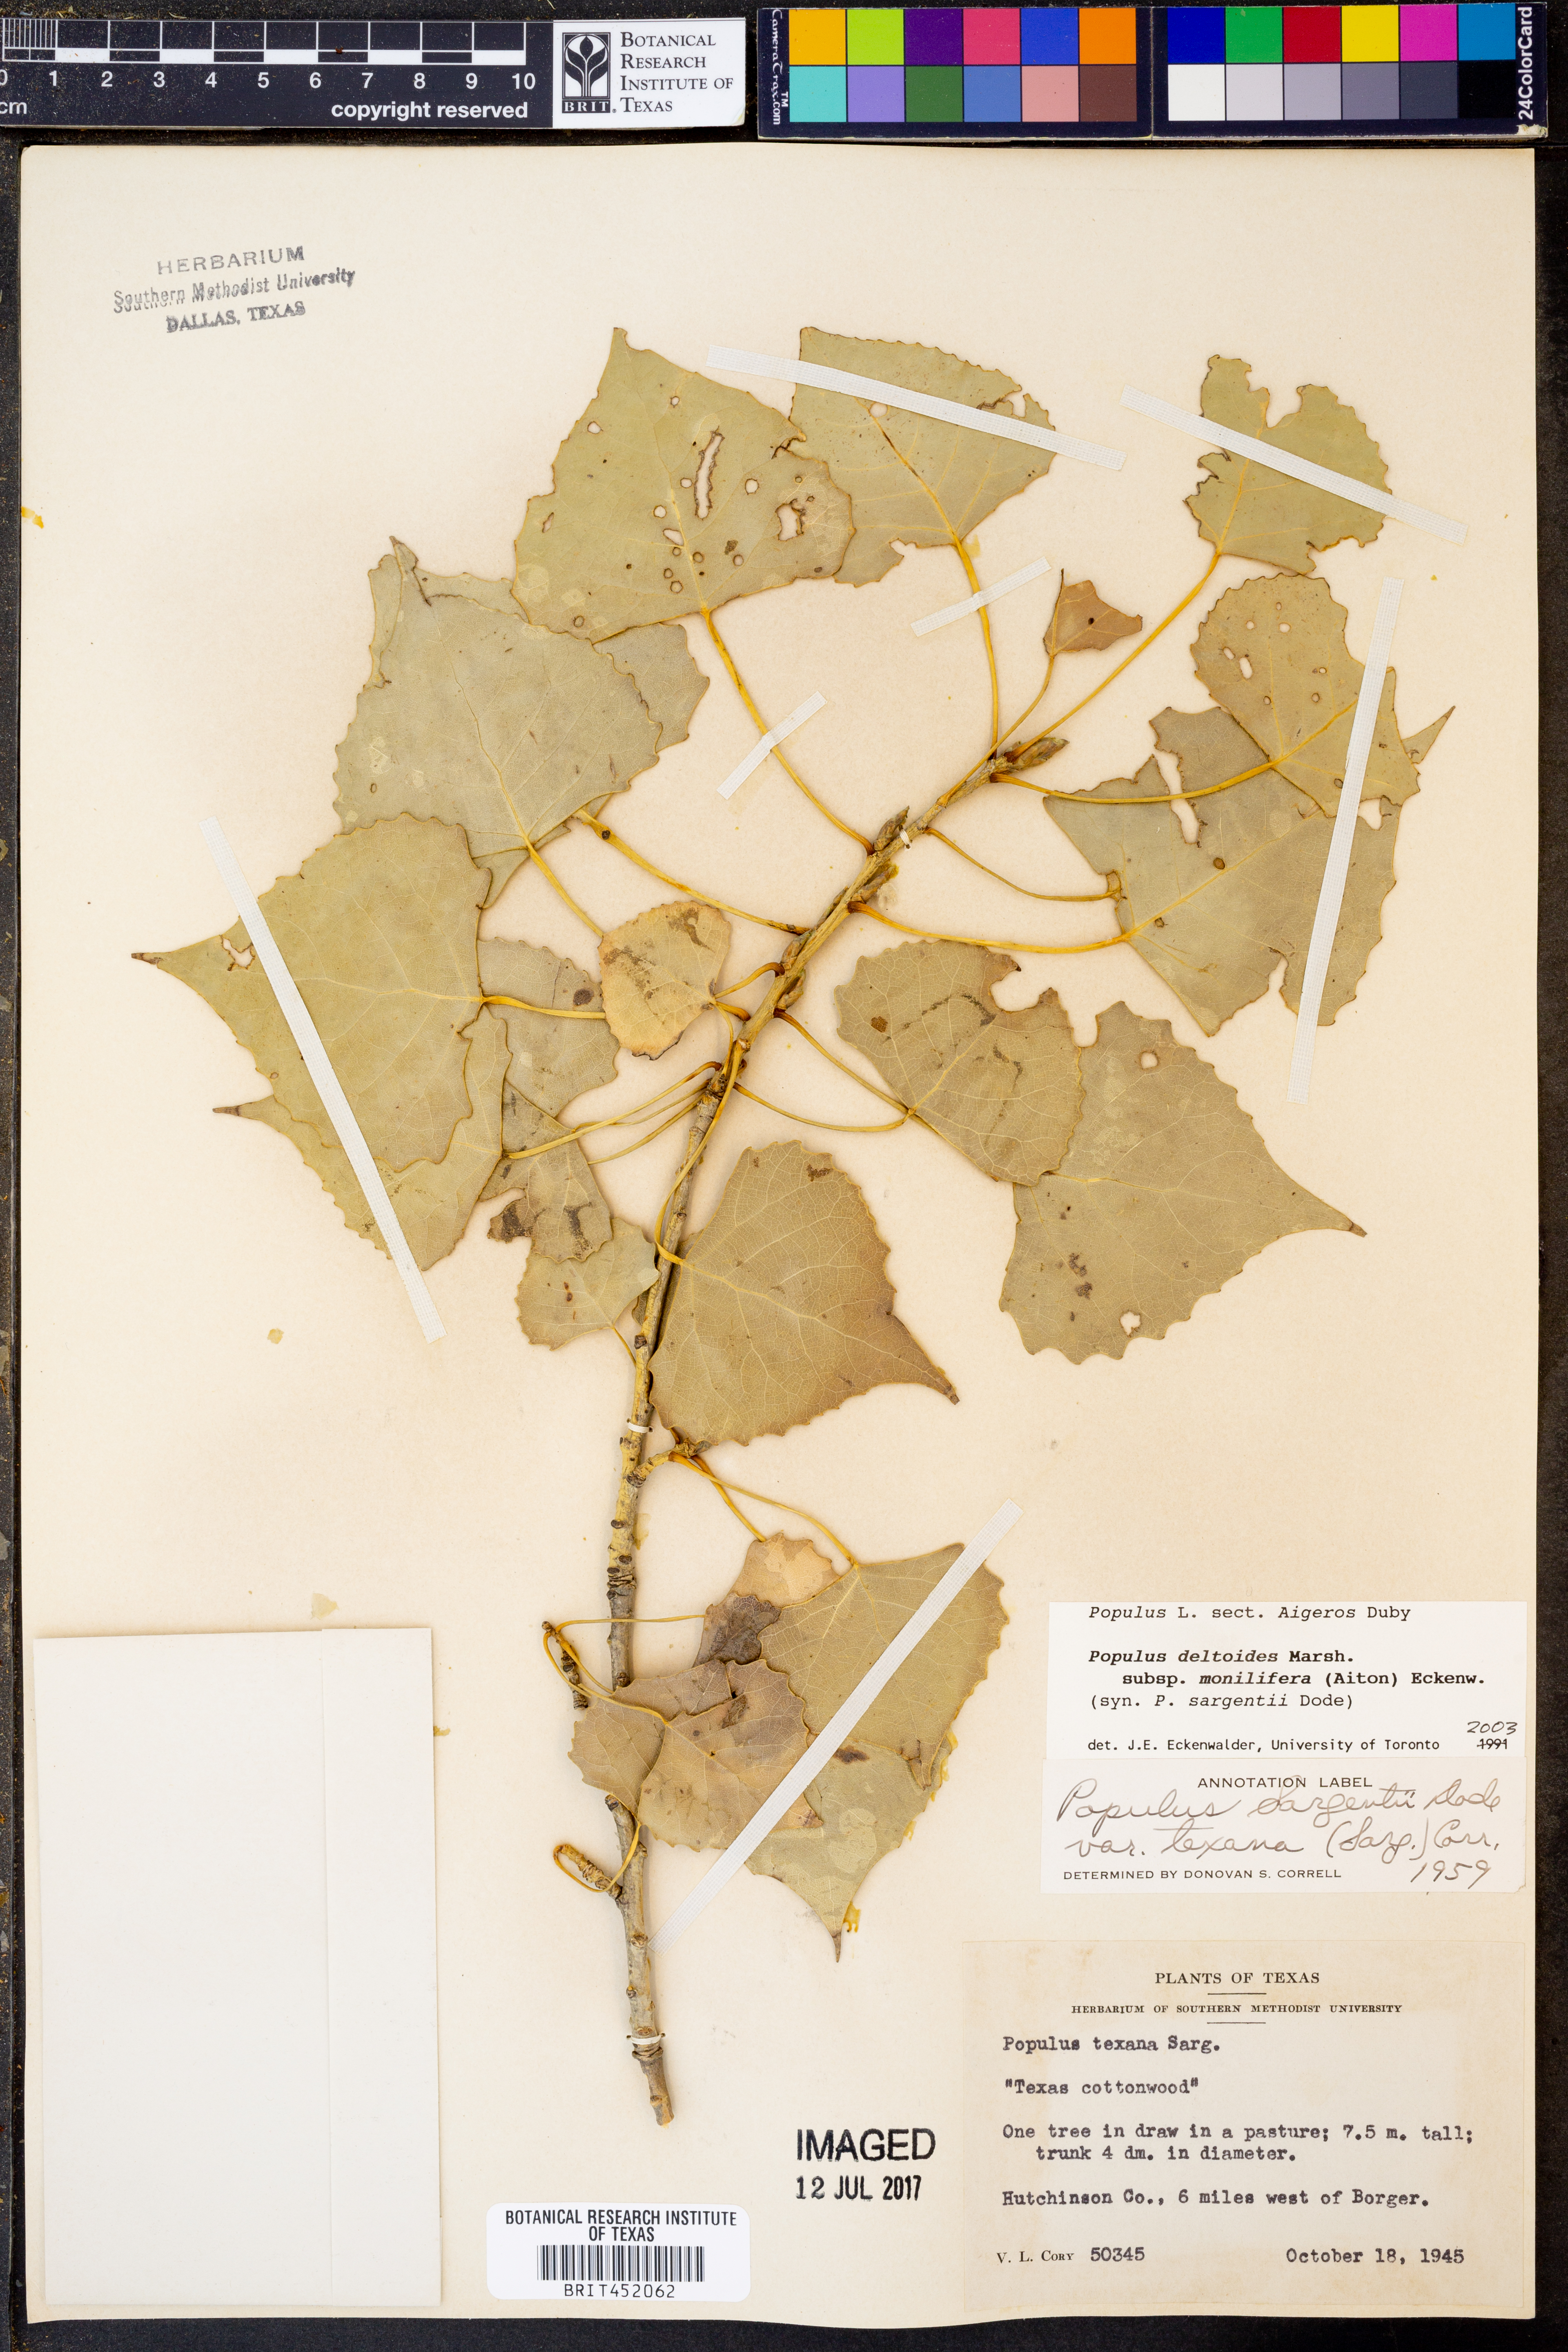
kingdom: Plantae
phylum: Tracheophyta
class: Magnoliopsida
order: Malpighiales
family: Salicaceae
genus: Populus
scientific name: Populus deltoides
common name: Eastern cottonwood
